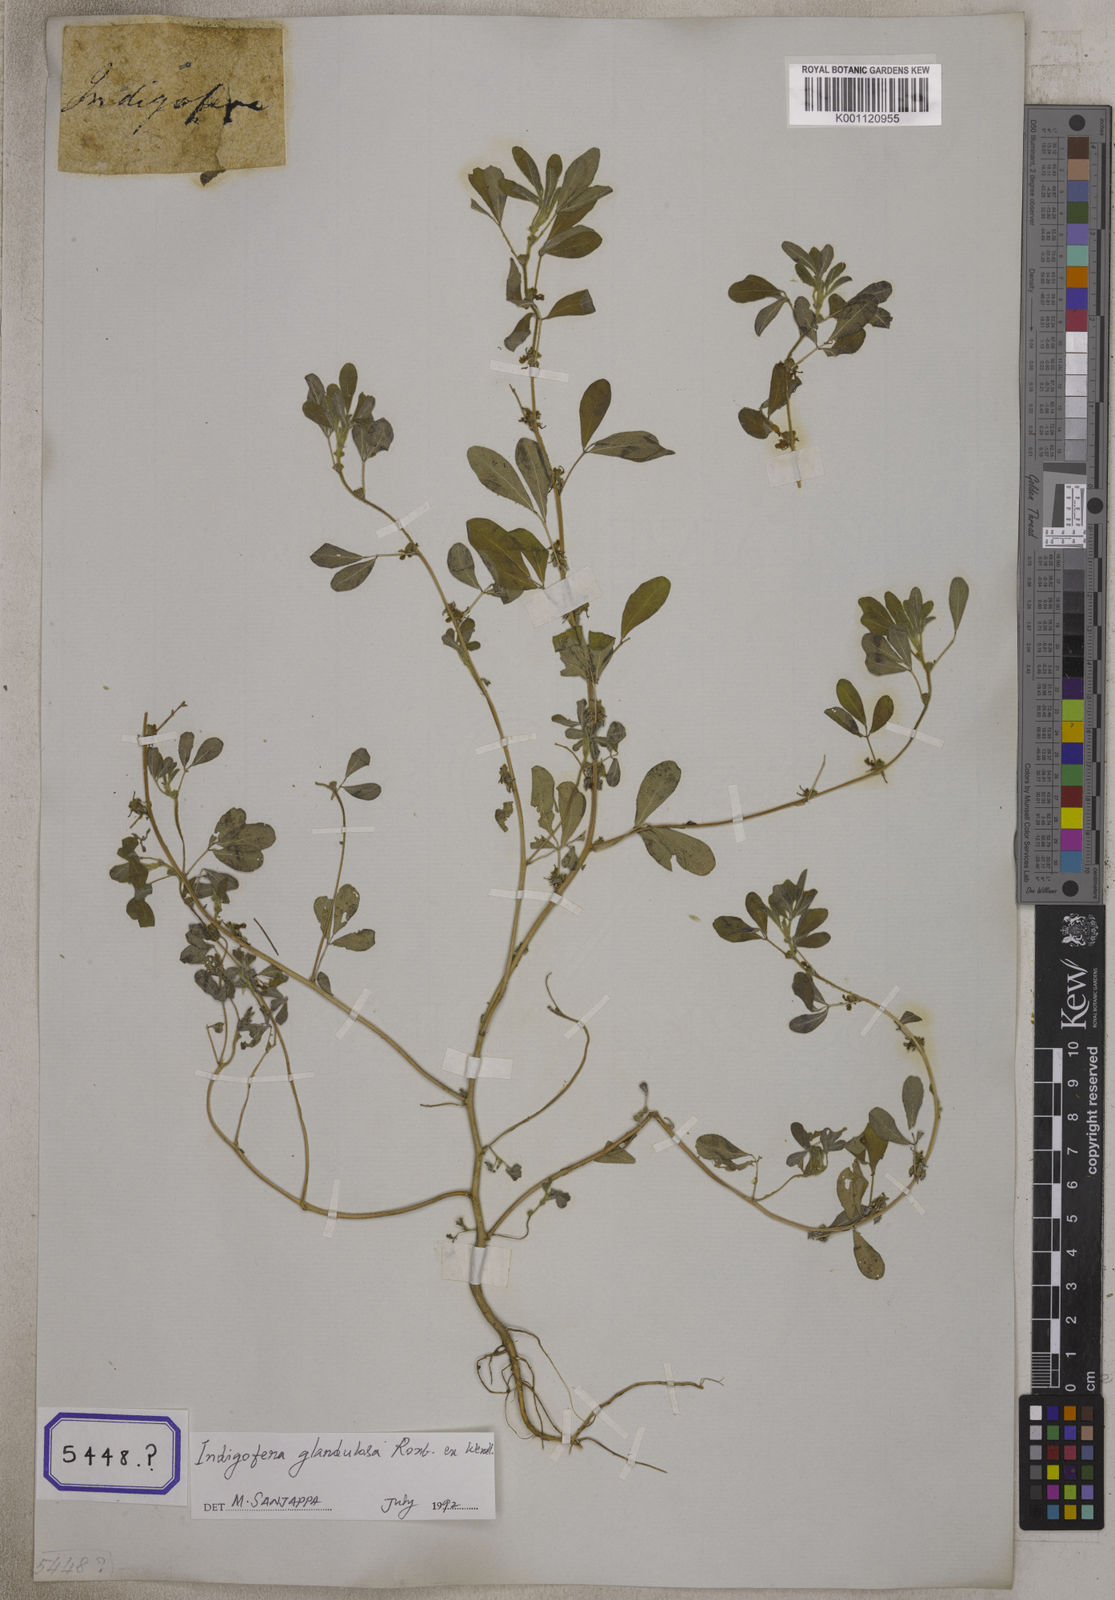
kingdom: Plantae
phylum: Tracheophyta
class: Magnoliopsida
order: Fabales
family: Fabaceae
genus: Indigofera
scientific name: Indigofera trita
